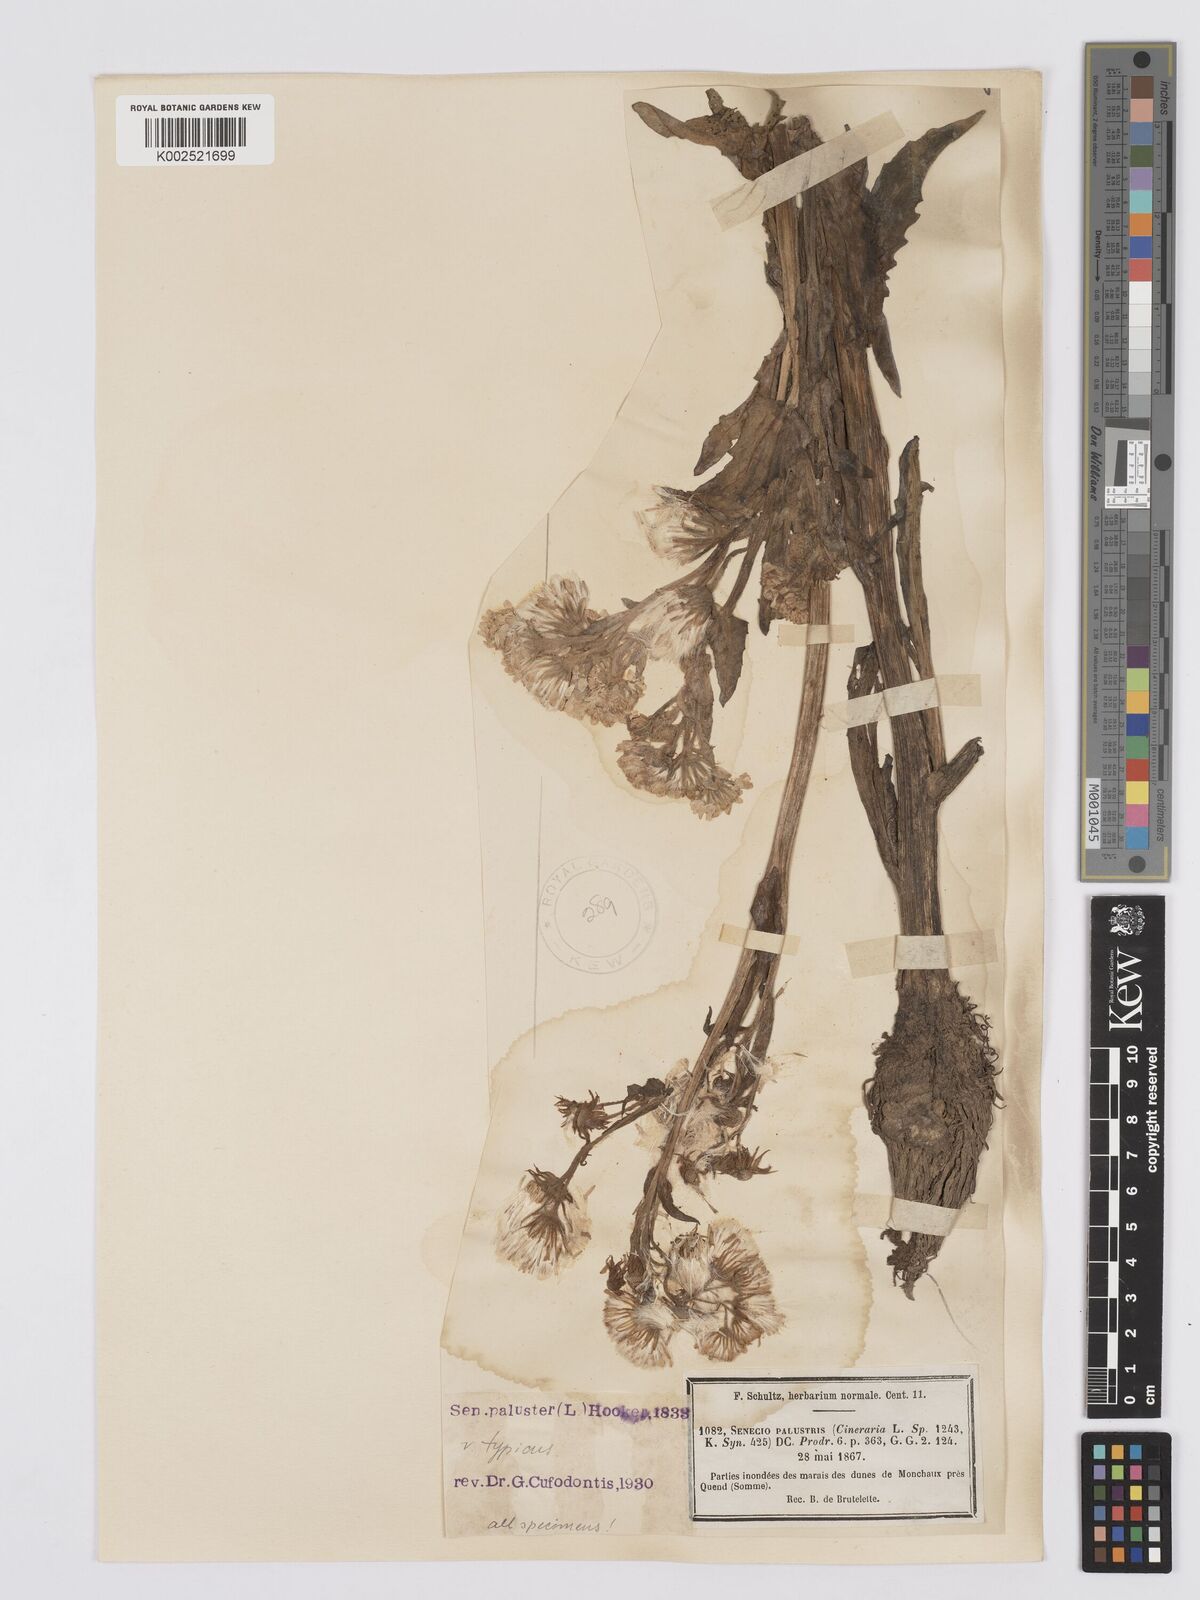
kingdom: Plantae
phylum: Tracheophyta
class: Magnoliopsida
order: Asterales
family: Asteraceae
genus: Tephroseris
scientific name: Tephroseris palustris
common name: Marsh fleawort
